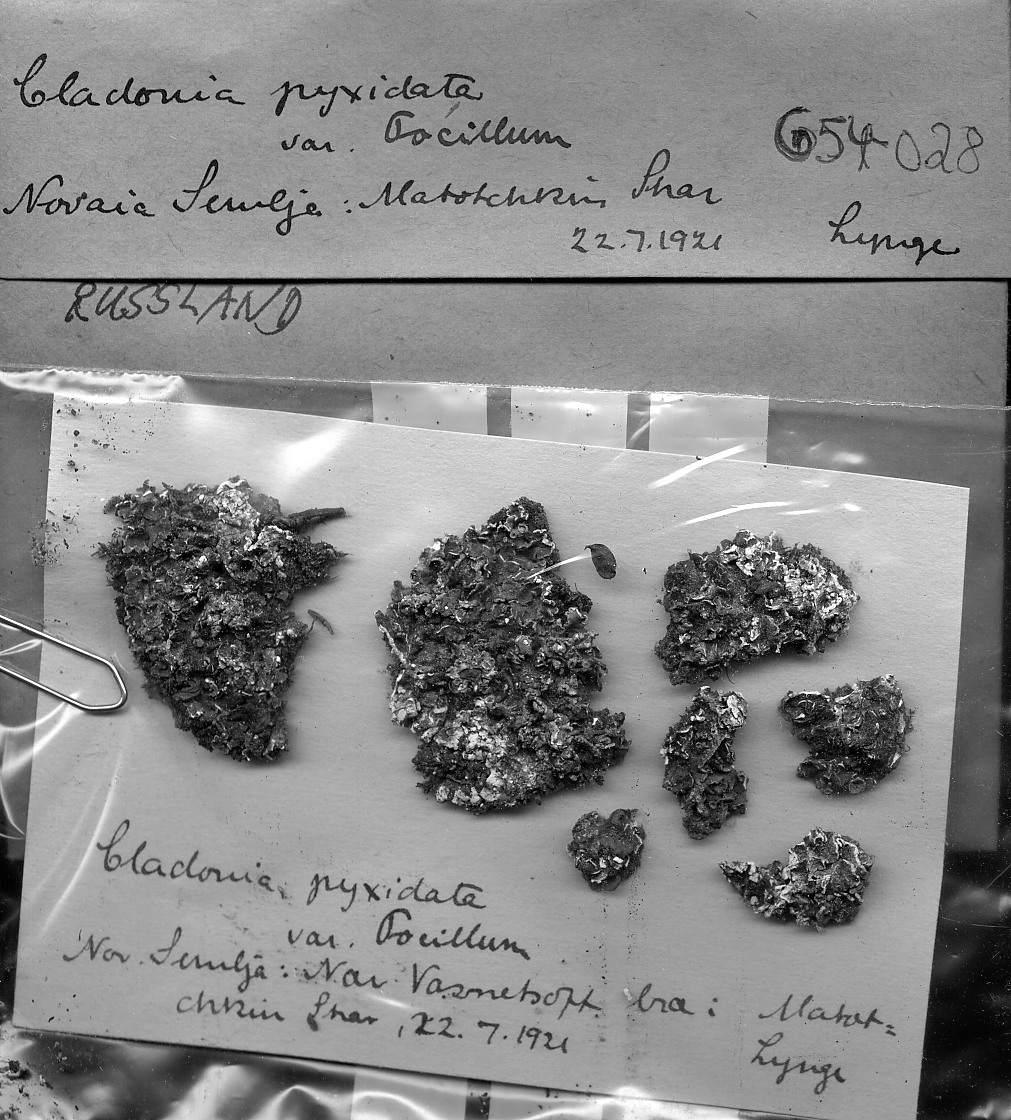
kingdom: Fungi
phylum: Ascomycota
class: Lecanoromycetes
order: Lecanorales
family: Cladoniaceae
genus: Cladonia
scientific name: Cladonia pocillum
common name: Rosette pixie-cup lichen
